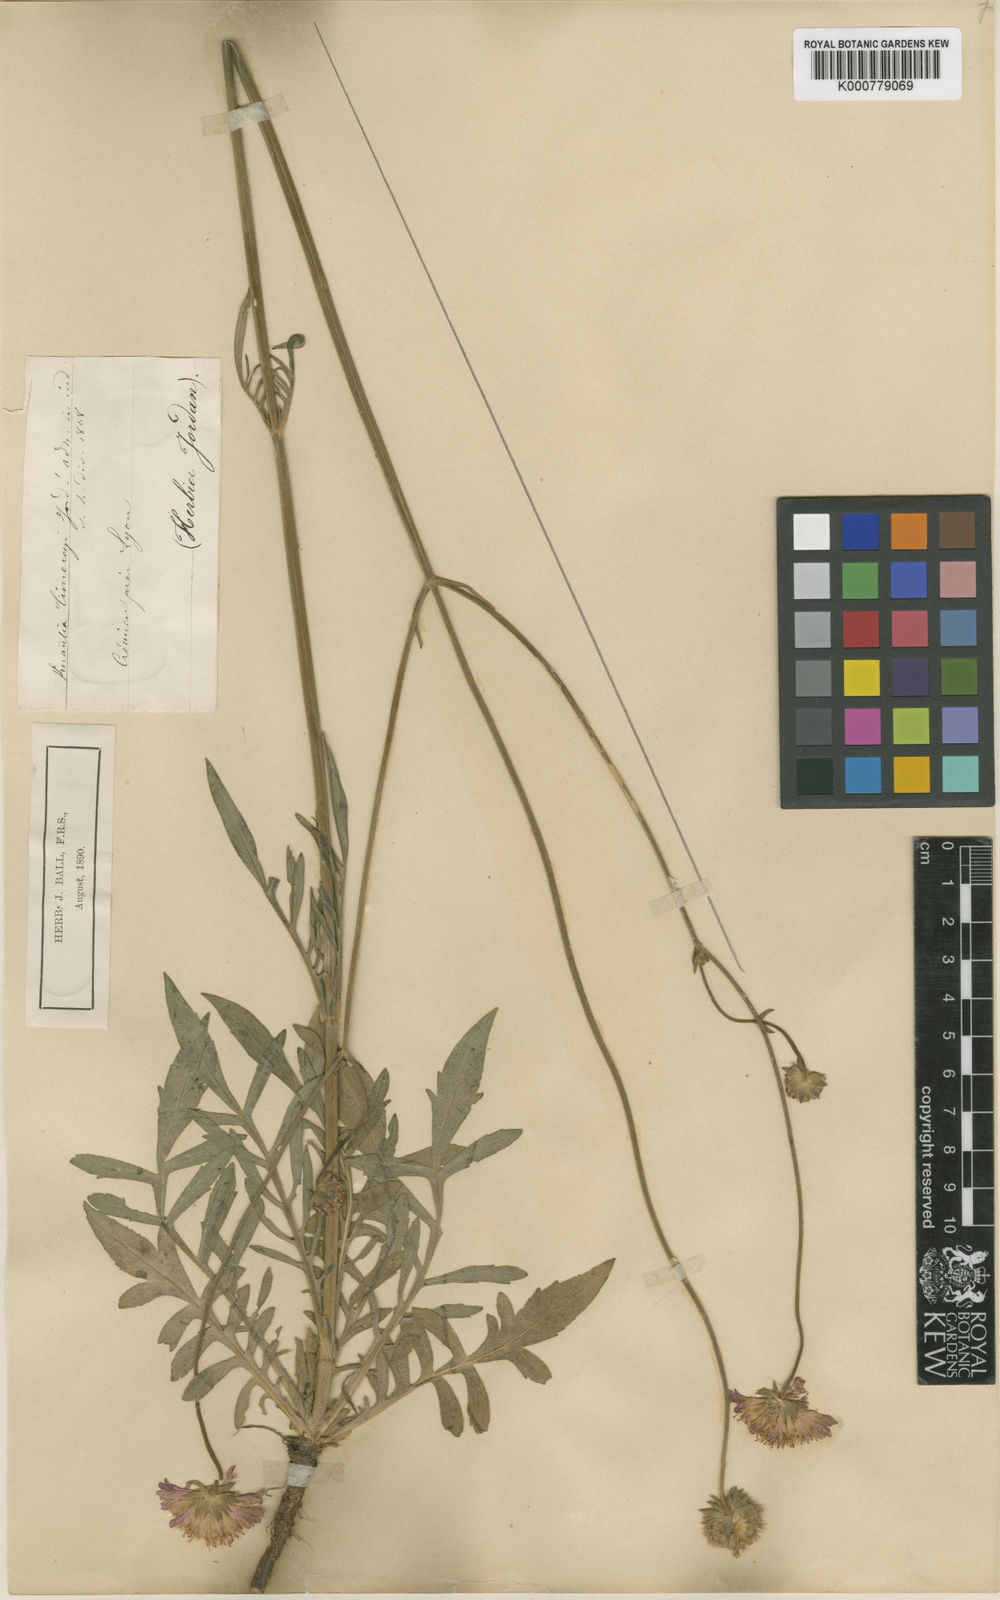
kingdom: Plantae
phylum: Tracheophyta
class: Magnoliopsida
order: Dipsacales
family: Caprifoliaceae
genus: Knautia
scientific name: Knautia arvensis
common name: Field scabiosa
